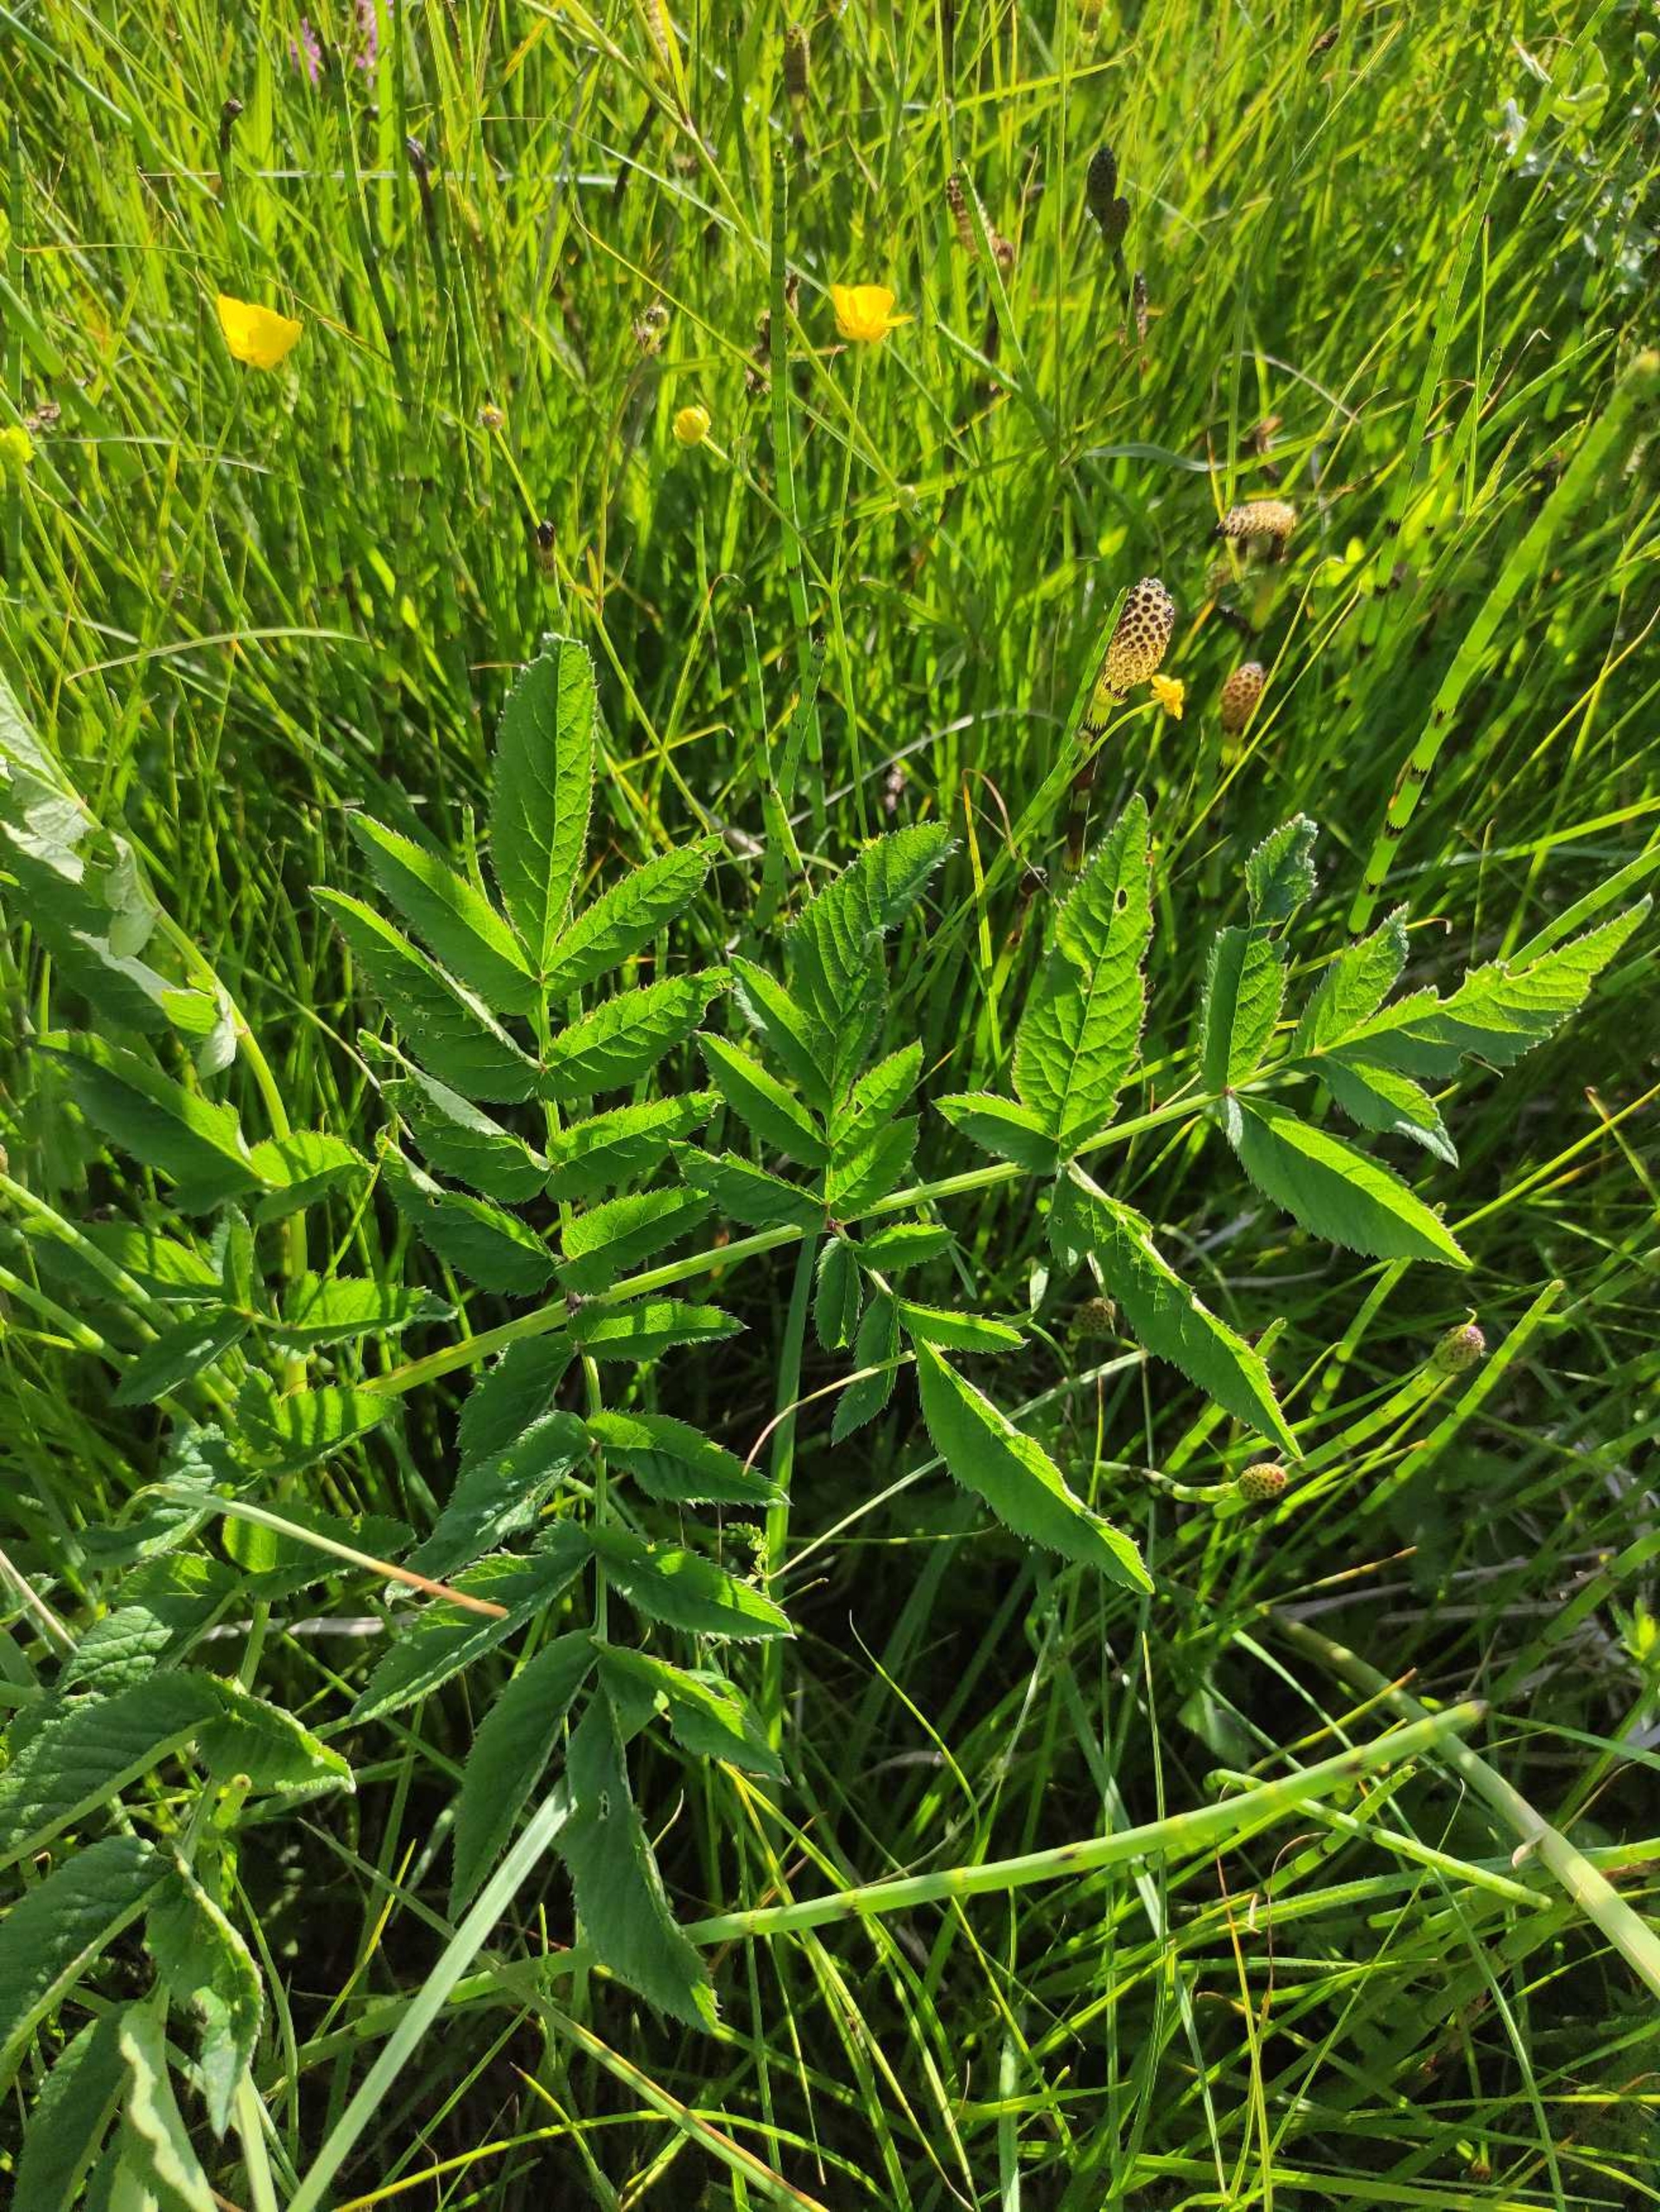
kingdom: Plantae
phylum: Tracheophyta
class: Magnoliopsida
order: Apiales
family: Apiaceae
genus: Angelica
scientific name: Angelica sylvestris
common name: Angelik
